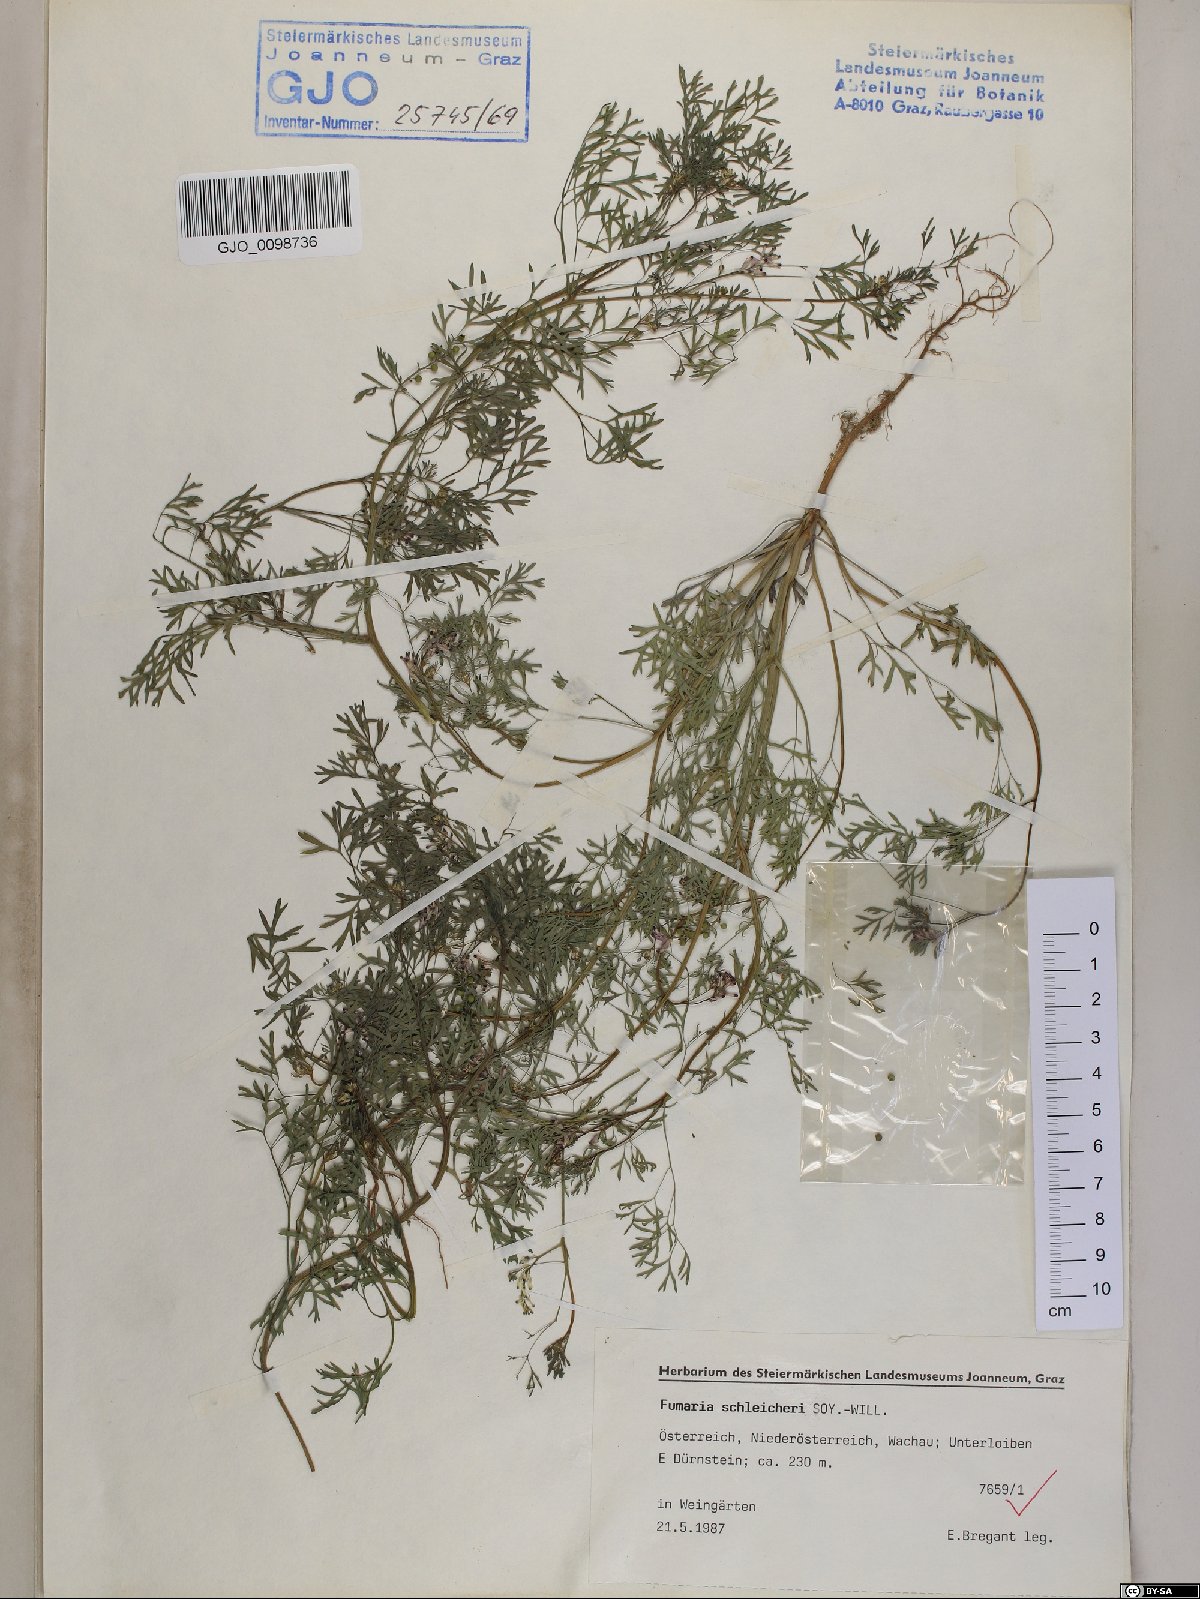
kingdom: Plantae
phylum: Tracheophyta
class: Magnoliopsida
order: Ranunculales
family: Papaveraceae
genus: Fumaria
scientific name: Fumaria schleicheri
